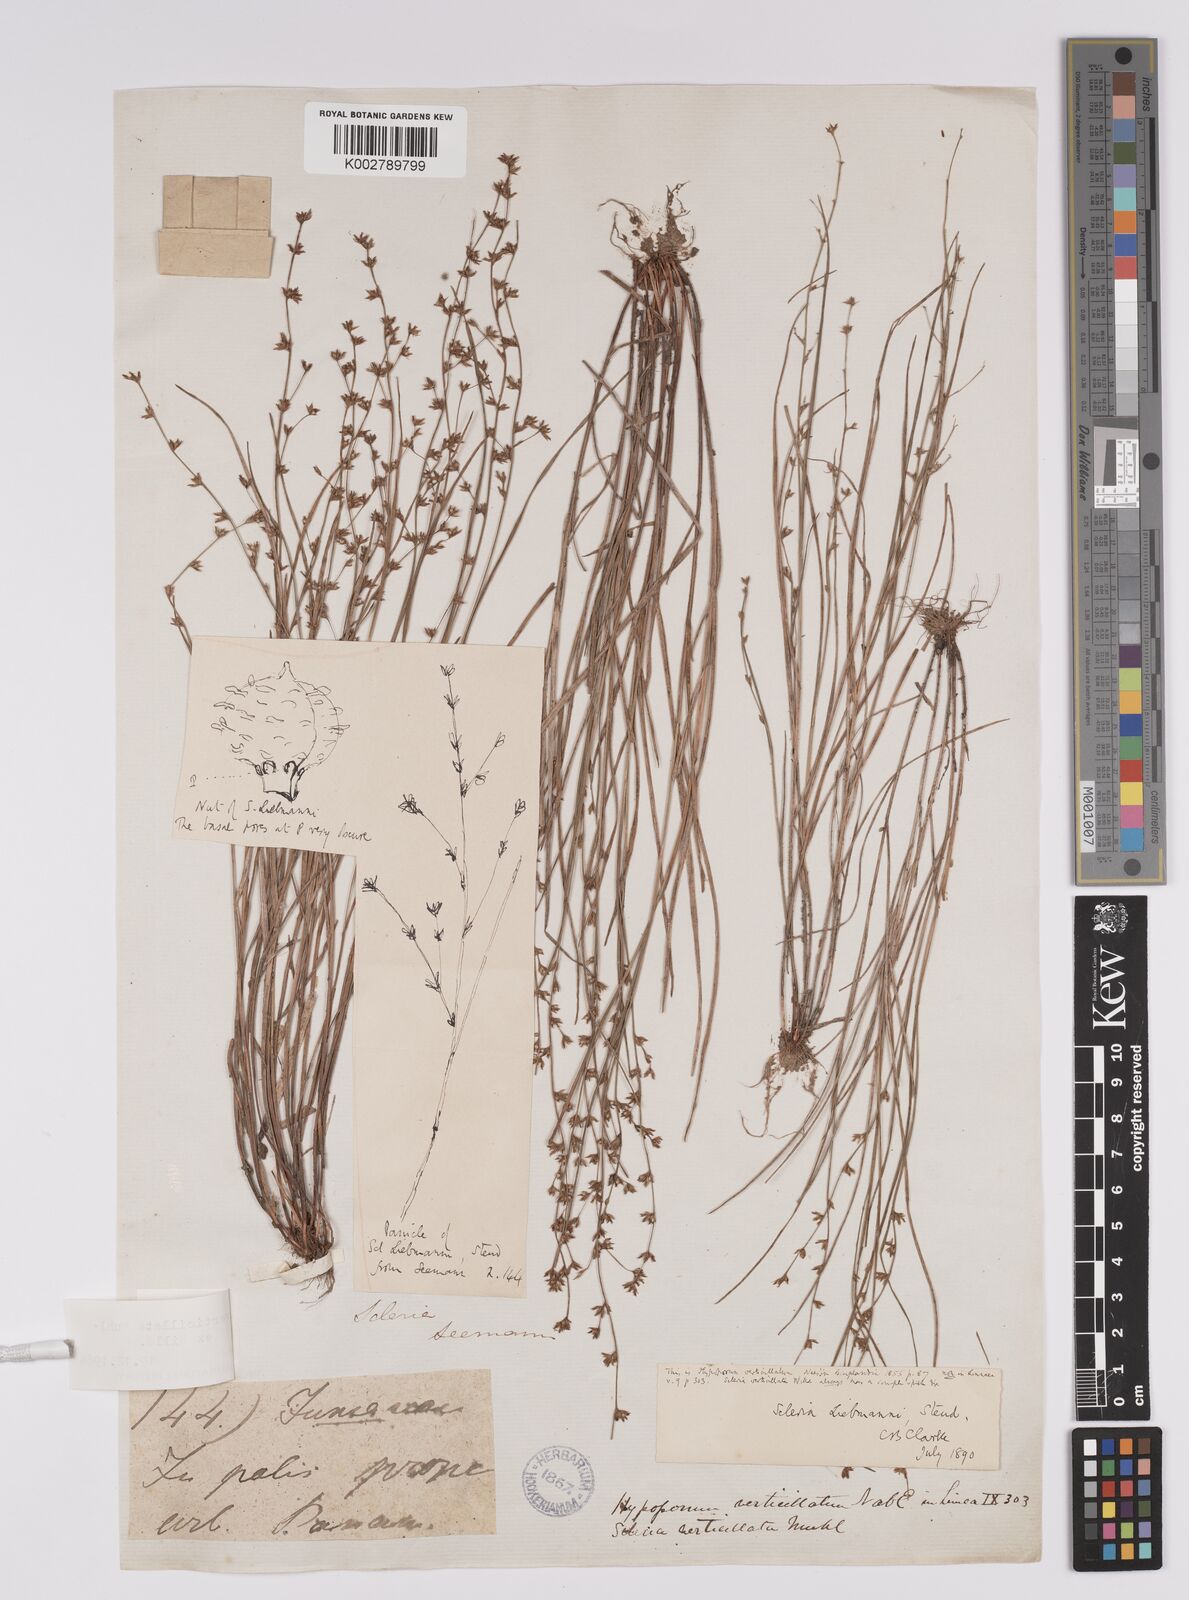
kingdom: Plantae
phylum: Tracheophyta
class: Liliopsida
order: Poales
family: Cyperaceae
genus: Scleria
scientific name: Scleria verticillata
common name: Low nutrush
